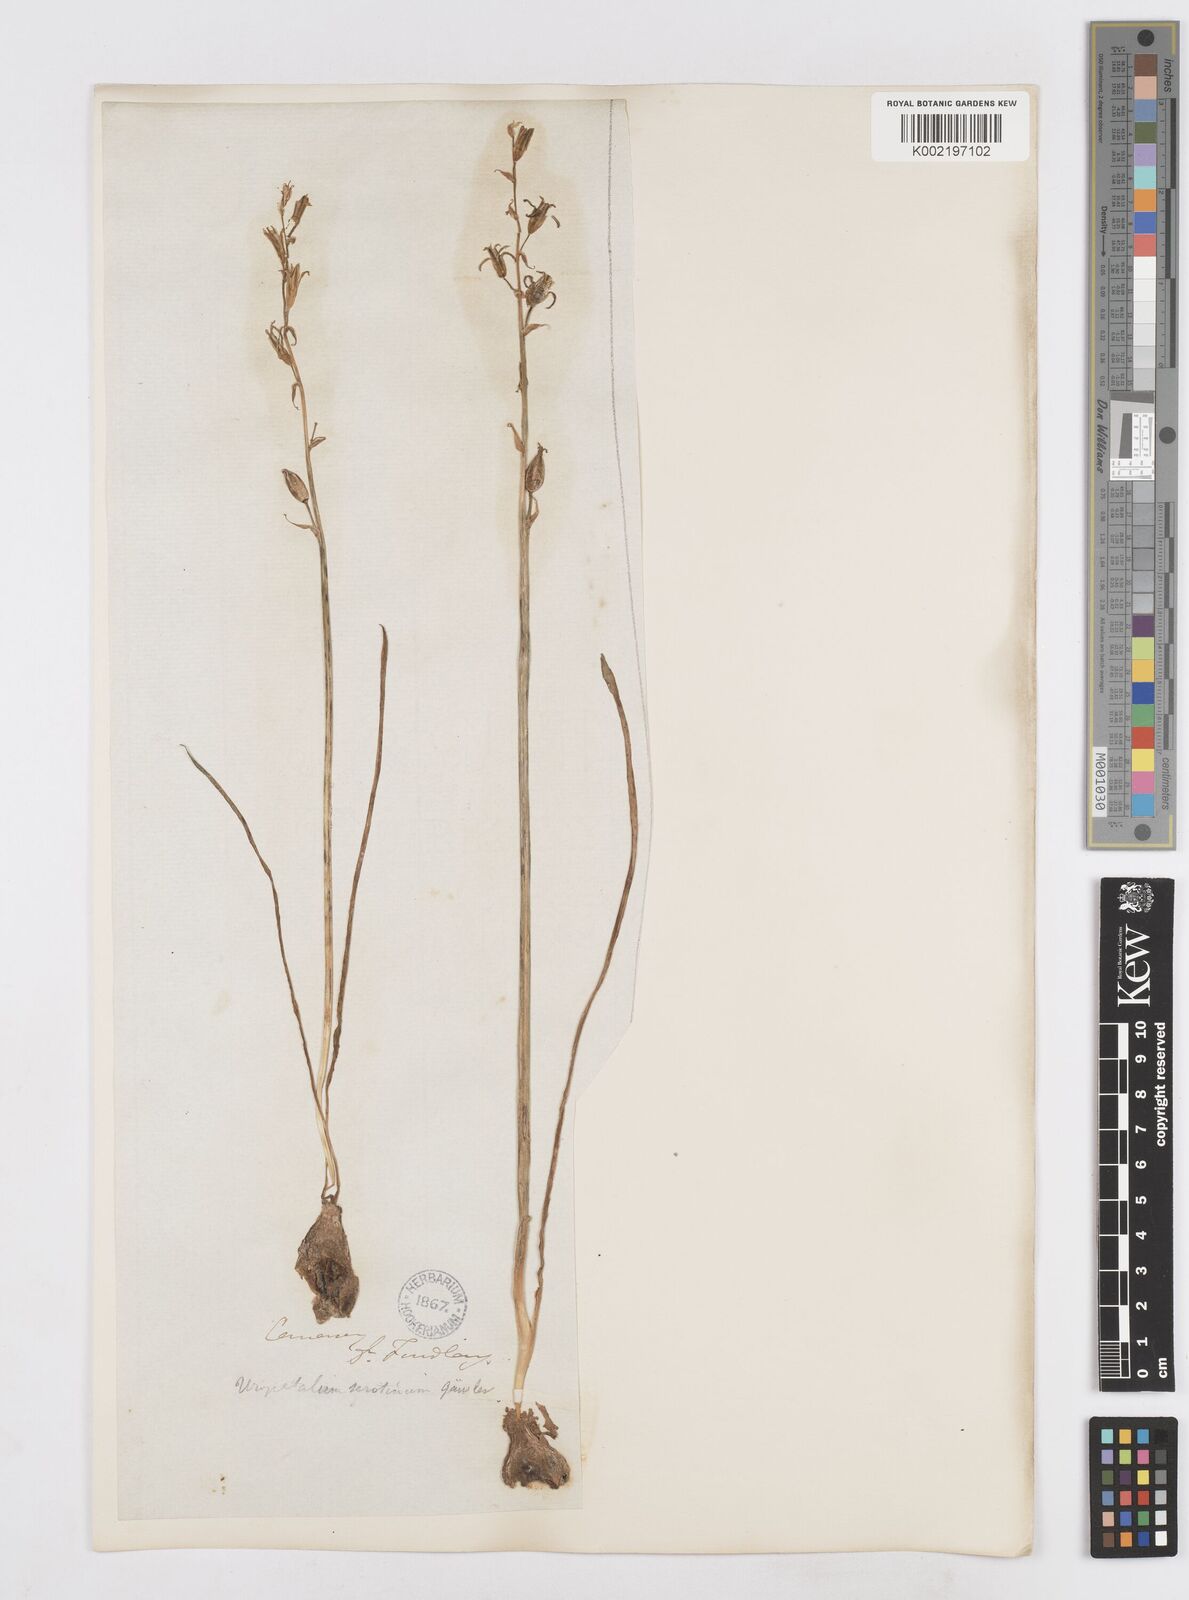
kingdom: Plantae
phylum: Tracheophyta
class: Liliopsida
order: Asparagales
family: Asparagaceae
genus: Dipcadi
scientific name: Dipcadi serotinum
